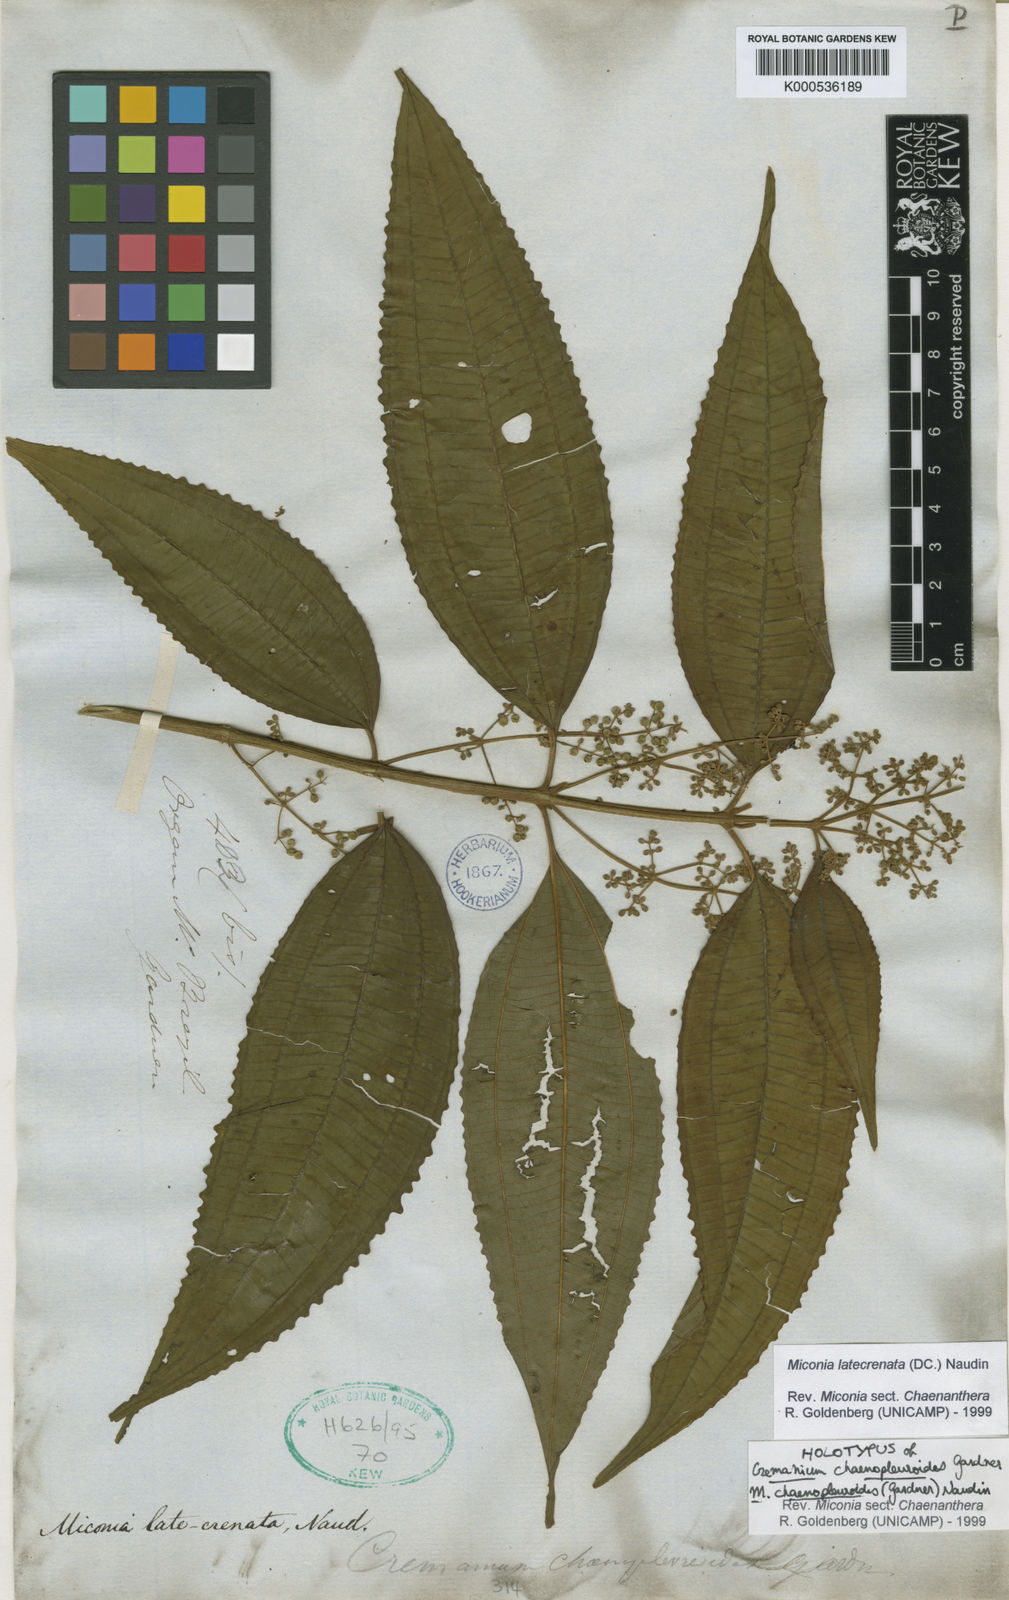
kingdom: Plantae
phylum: Tracheophyta
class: Magnoliopsida
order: Myrtales
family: Melastomataceae
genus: Miconia
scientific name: Miconia latecrenata
